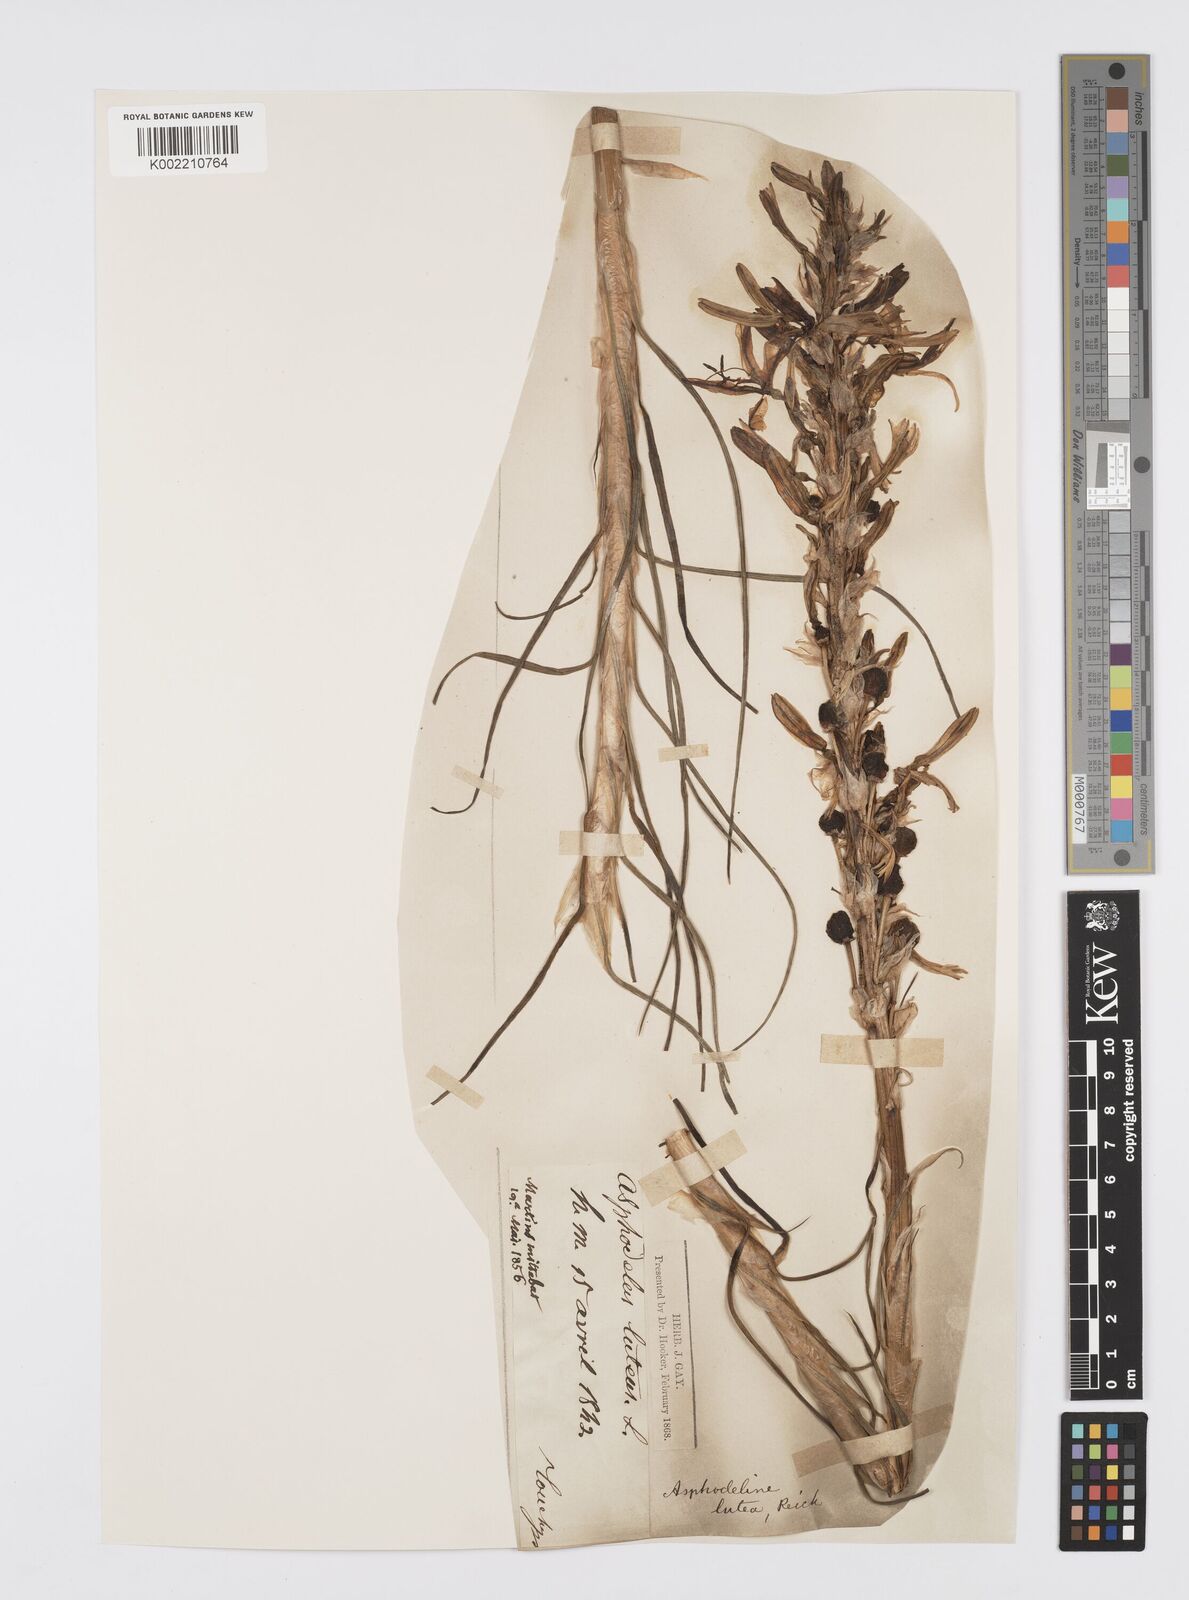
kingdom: Plantae
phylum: Tracheophyta
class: Liliopsida
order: Asparagales
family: Asphodelaceae
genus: Asphodeline
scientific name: Asphodeline lutea
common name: Yellow asphodel
